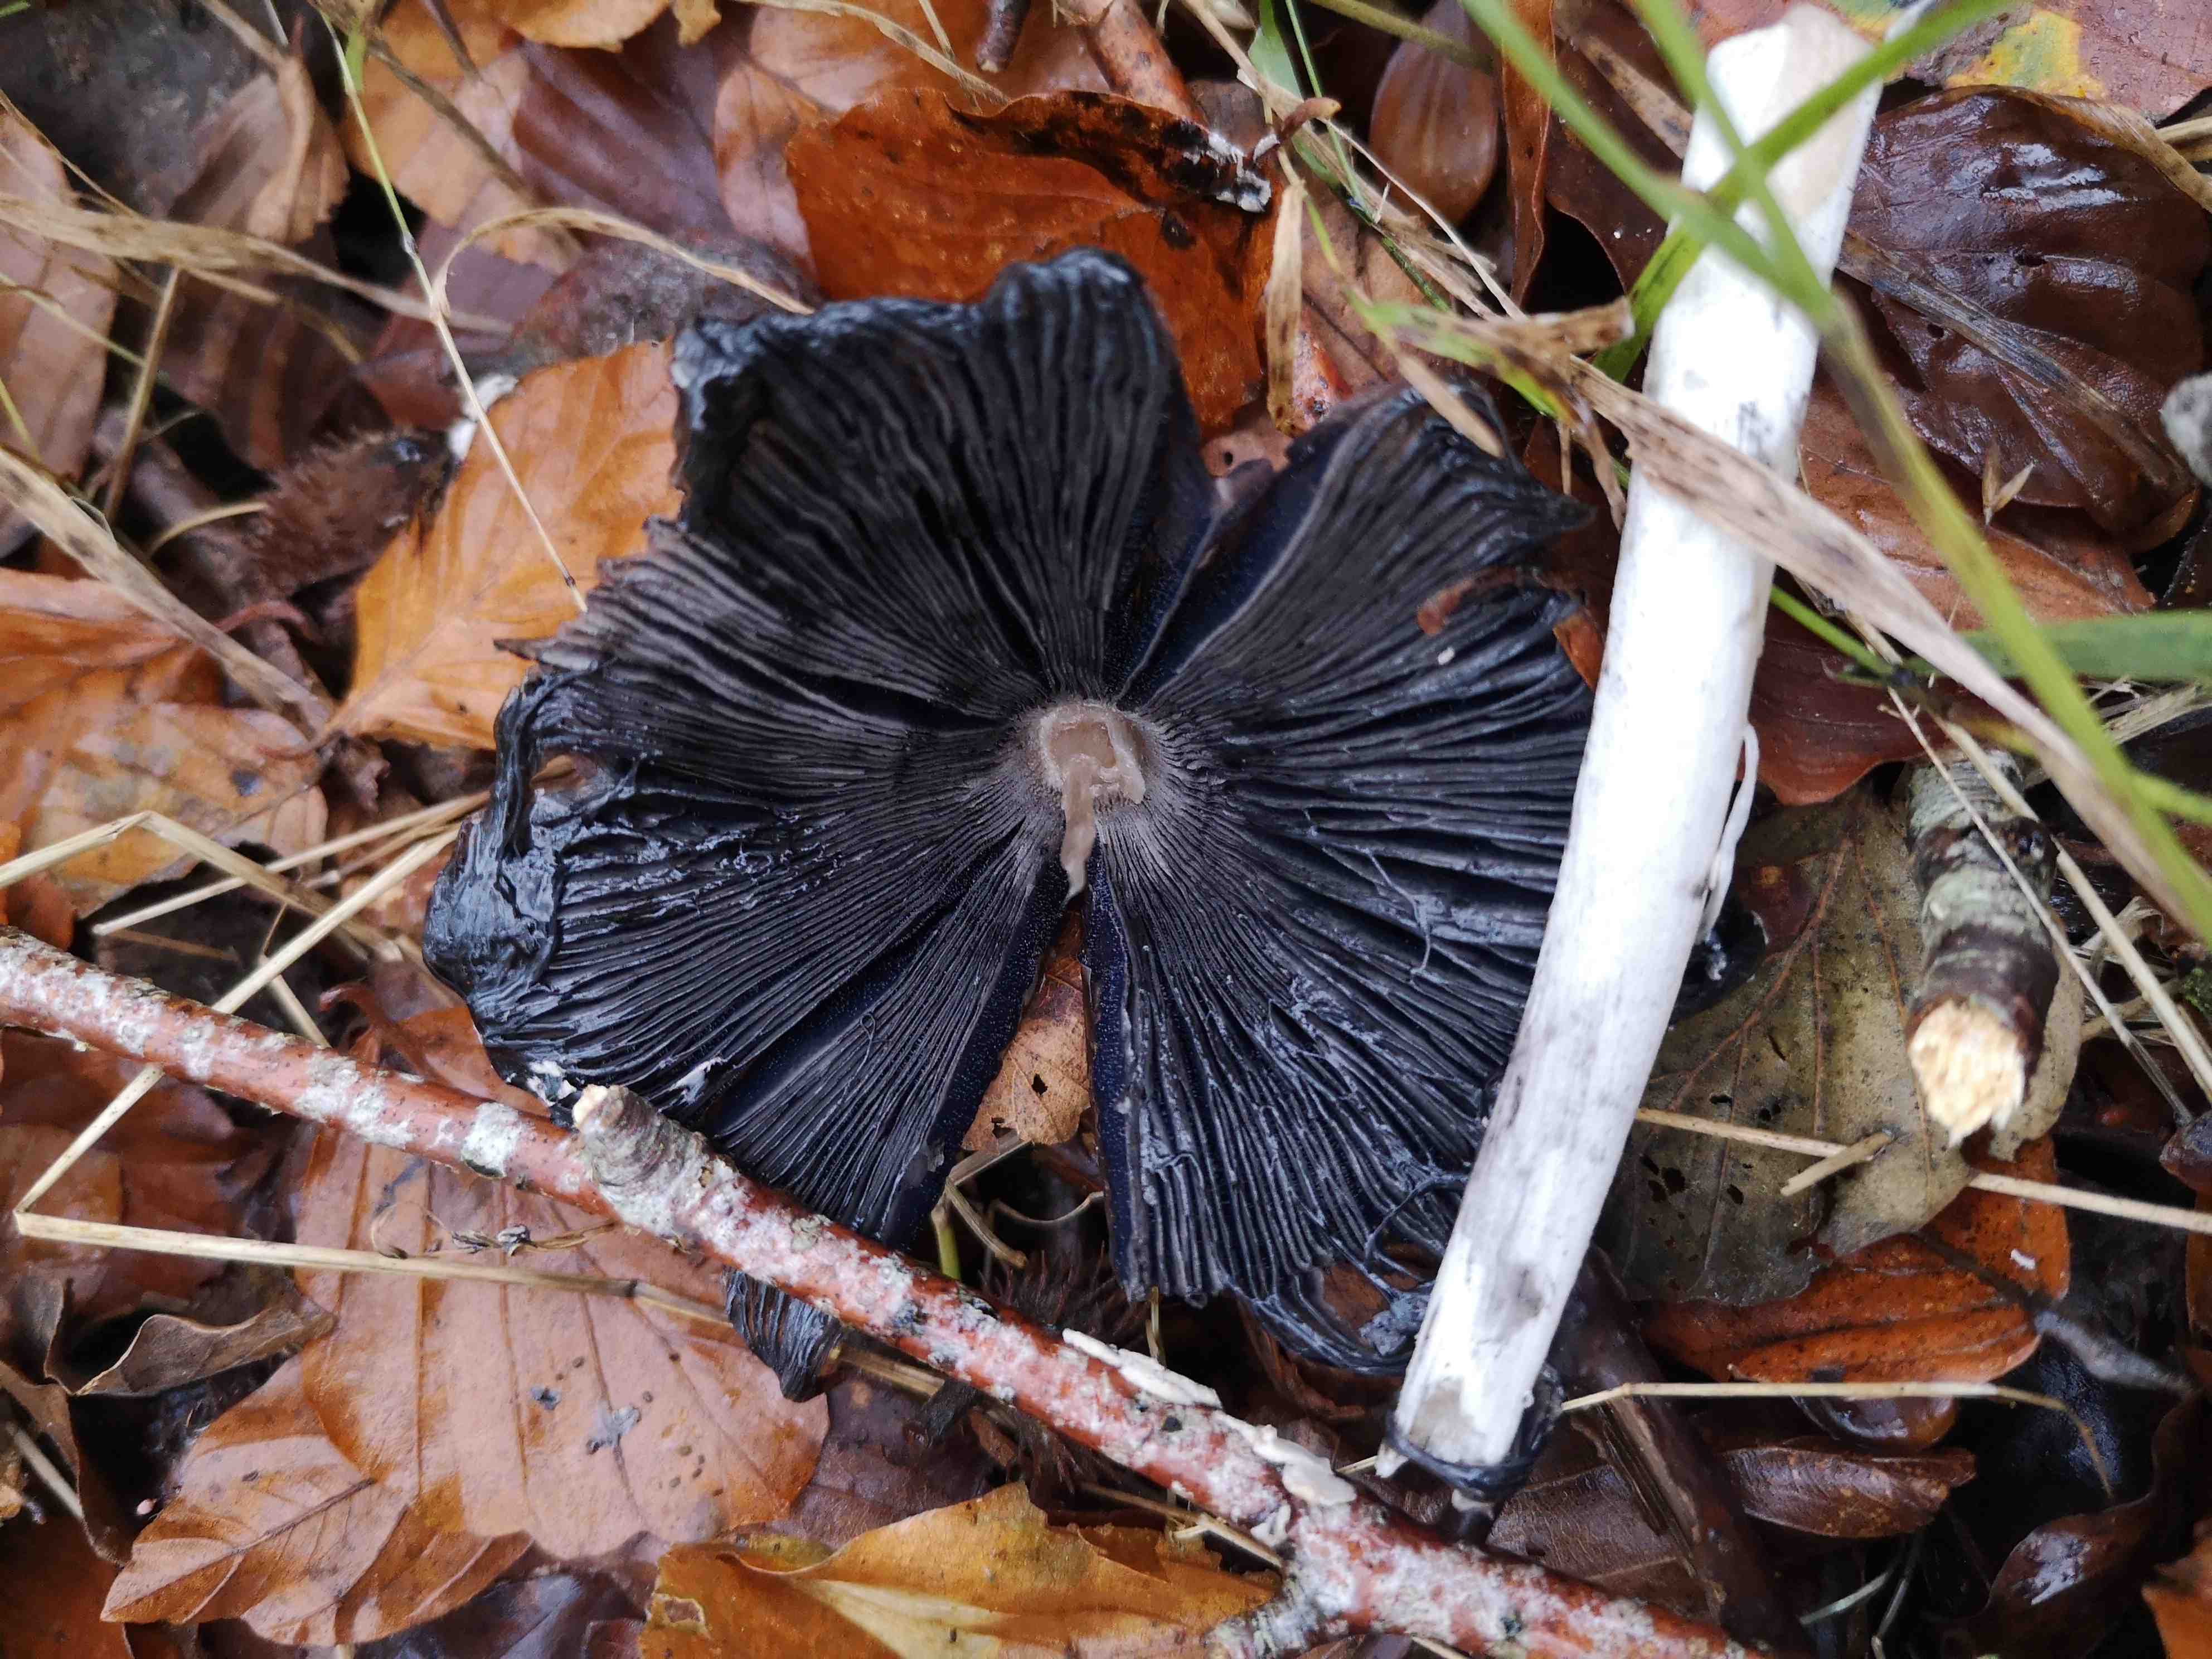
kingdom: Fungi
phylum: Basidiomycota
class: Agaricomycetes
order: Agaricales
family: Psathyrellaceae
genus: Coprinopsis
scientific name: Coprinopsis picacea
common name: skade-blækhat
